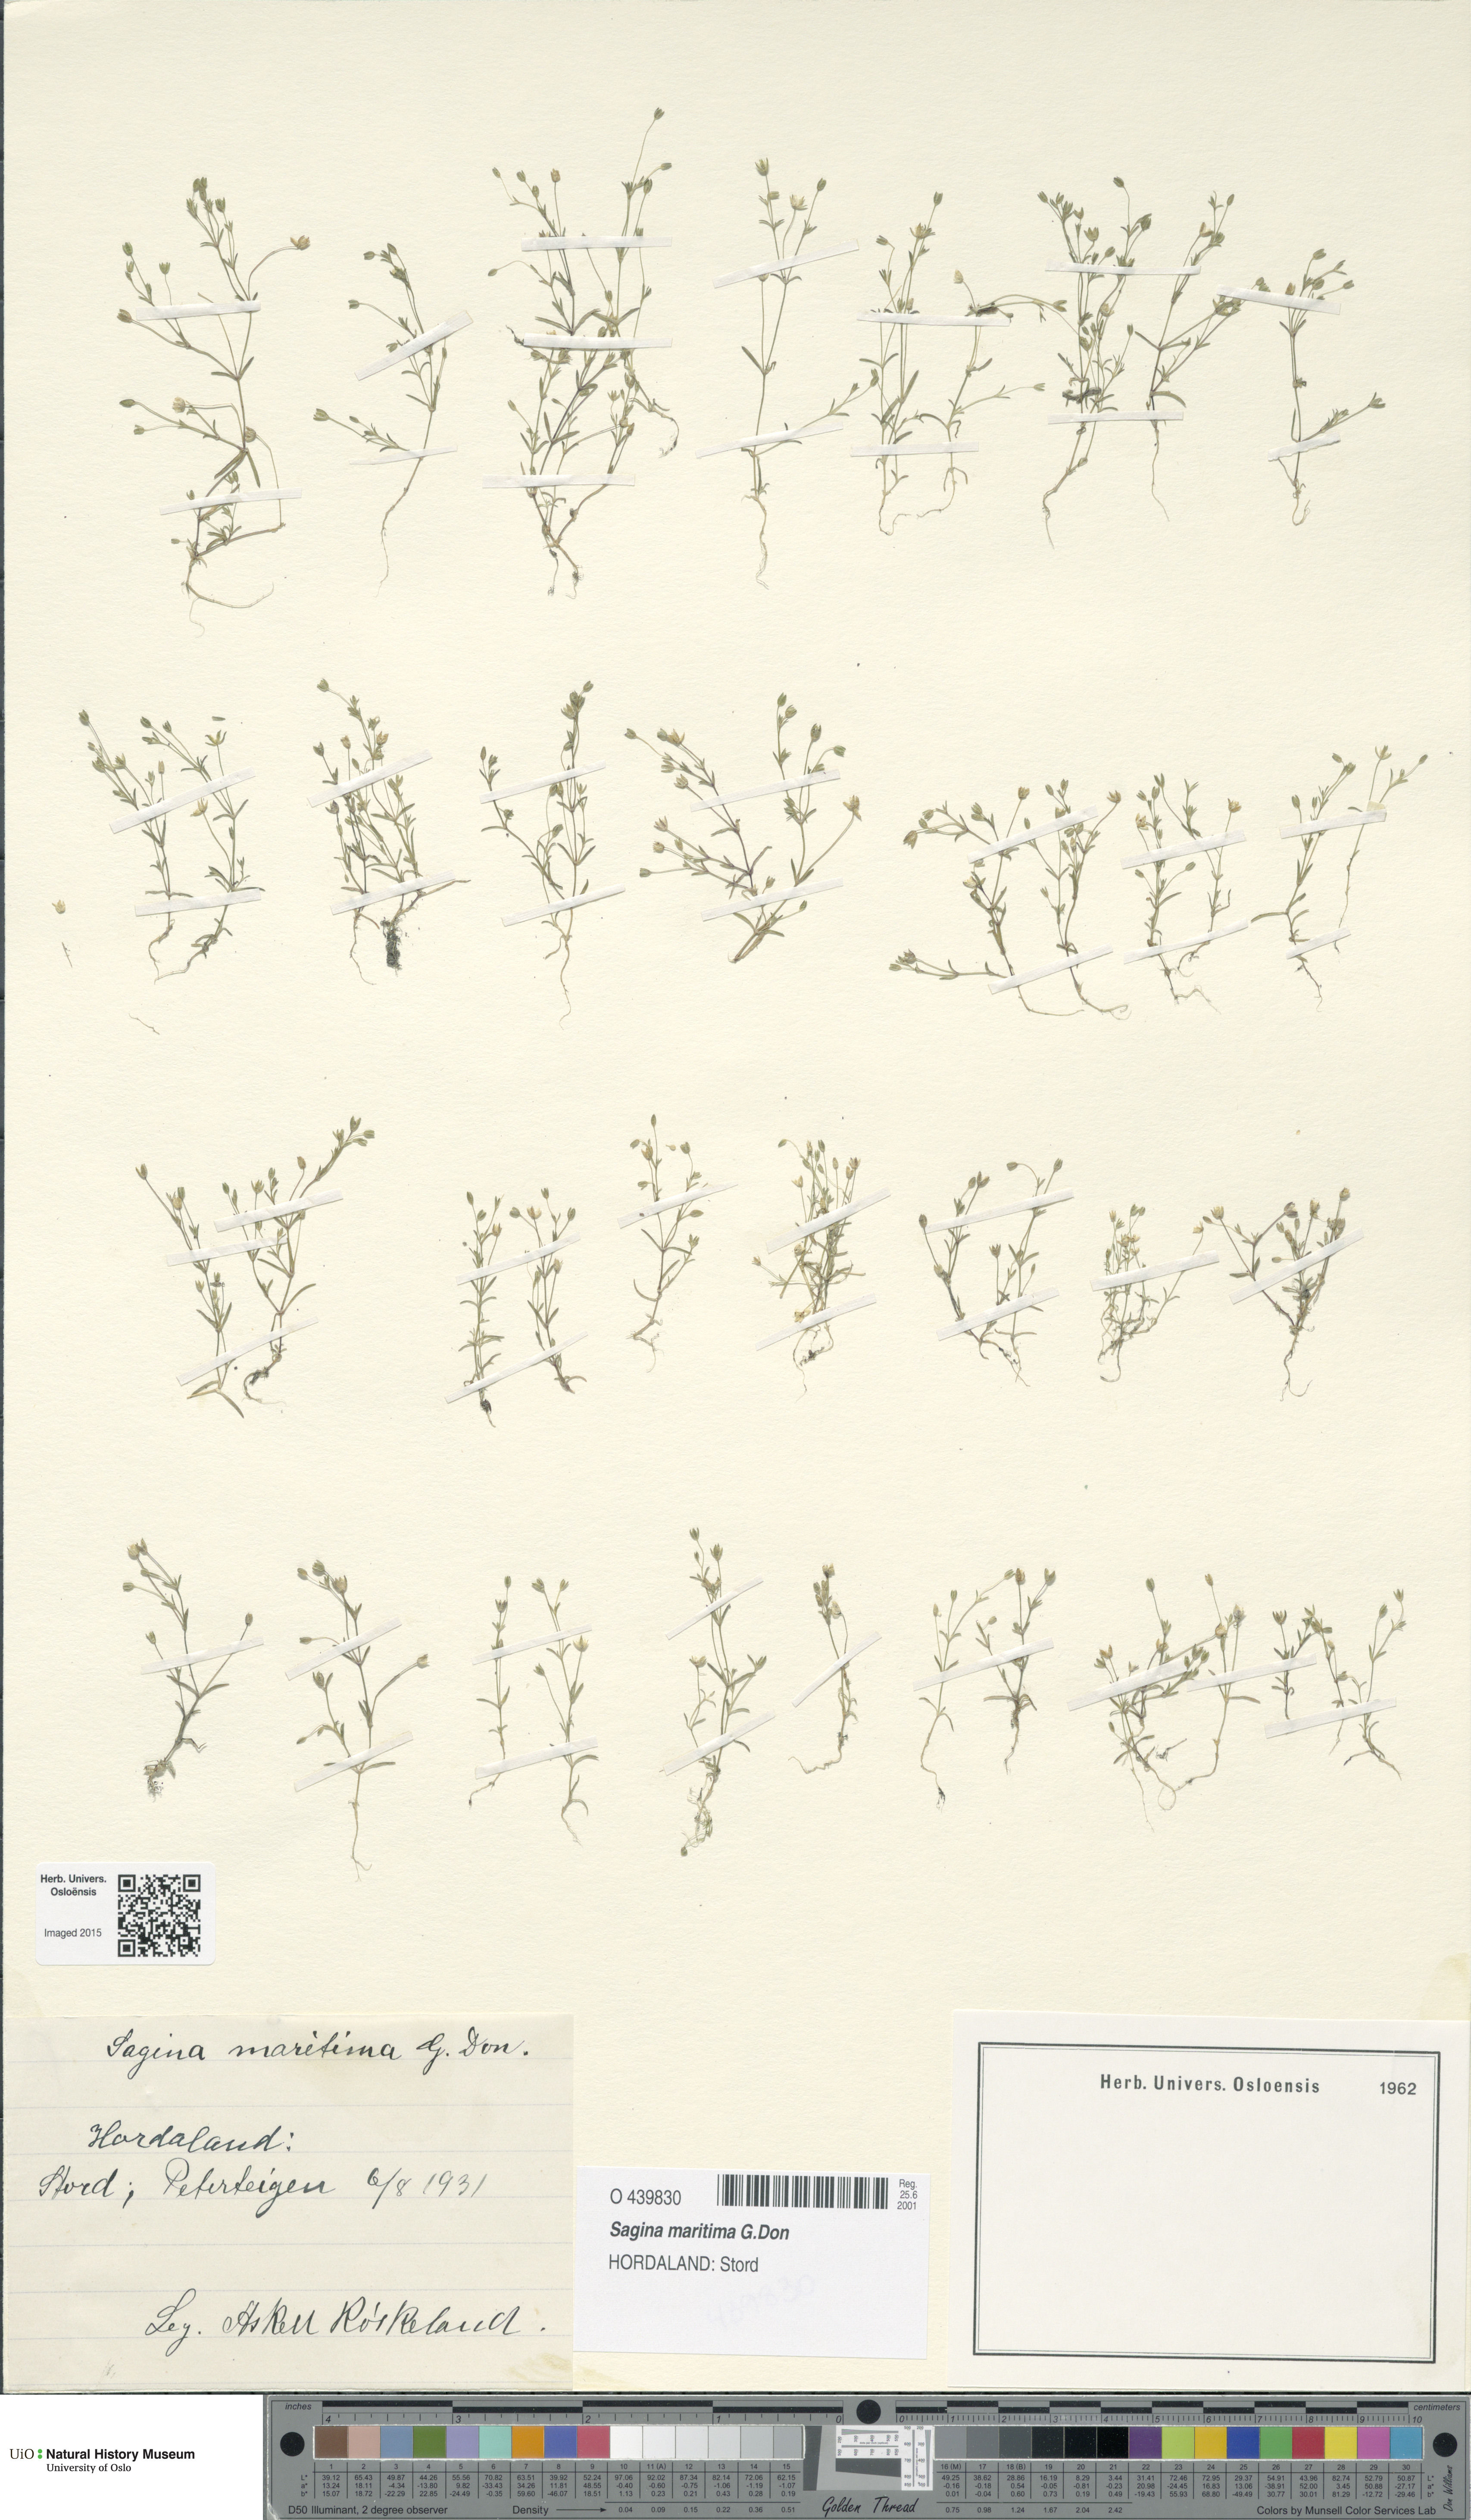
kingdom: Plantae
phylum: Tracheophyta
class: Magnoliopsida
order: Caryophyllales
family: Caryophyllaceae
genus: Sagina
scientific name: Sagina maritima
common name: Sea pearlwort
